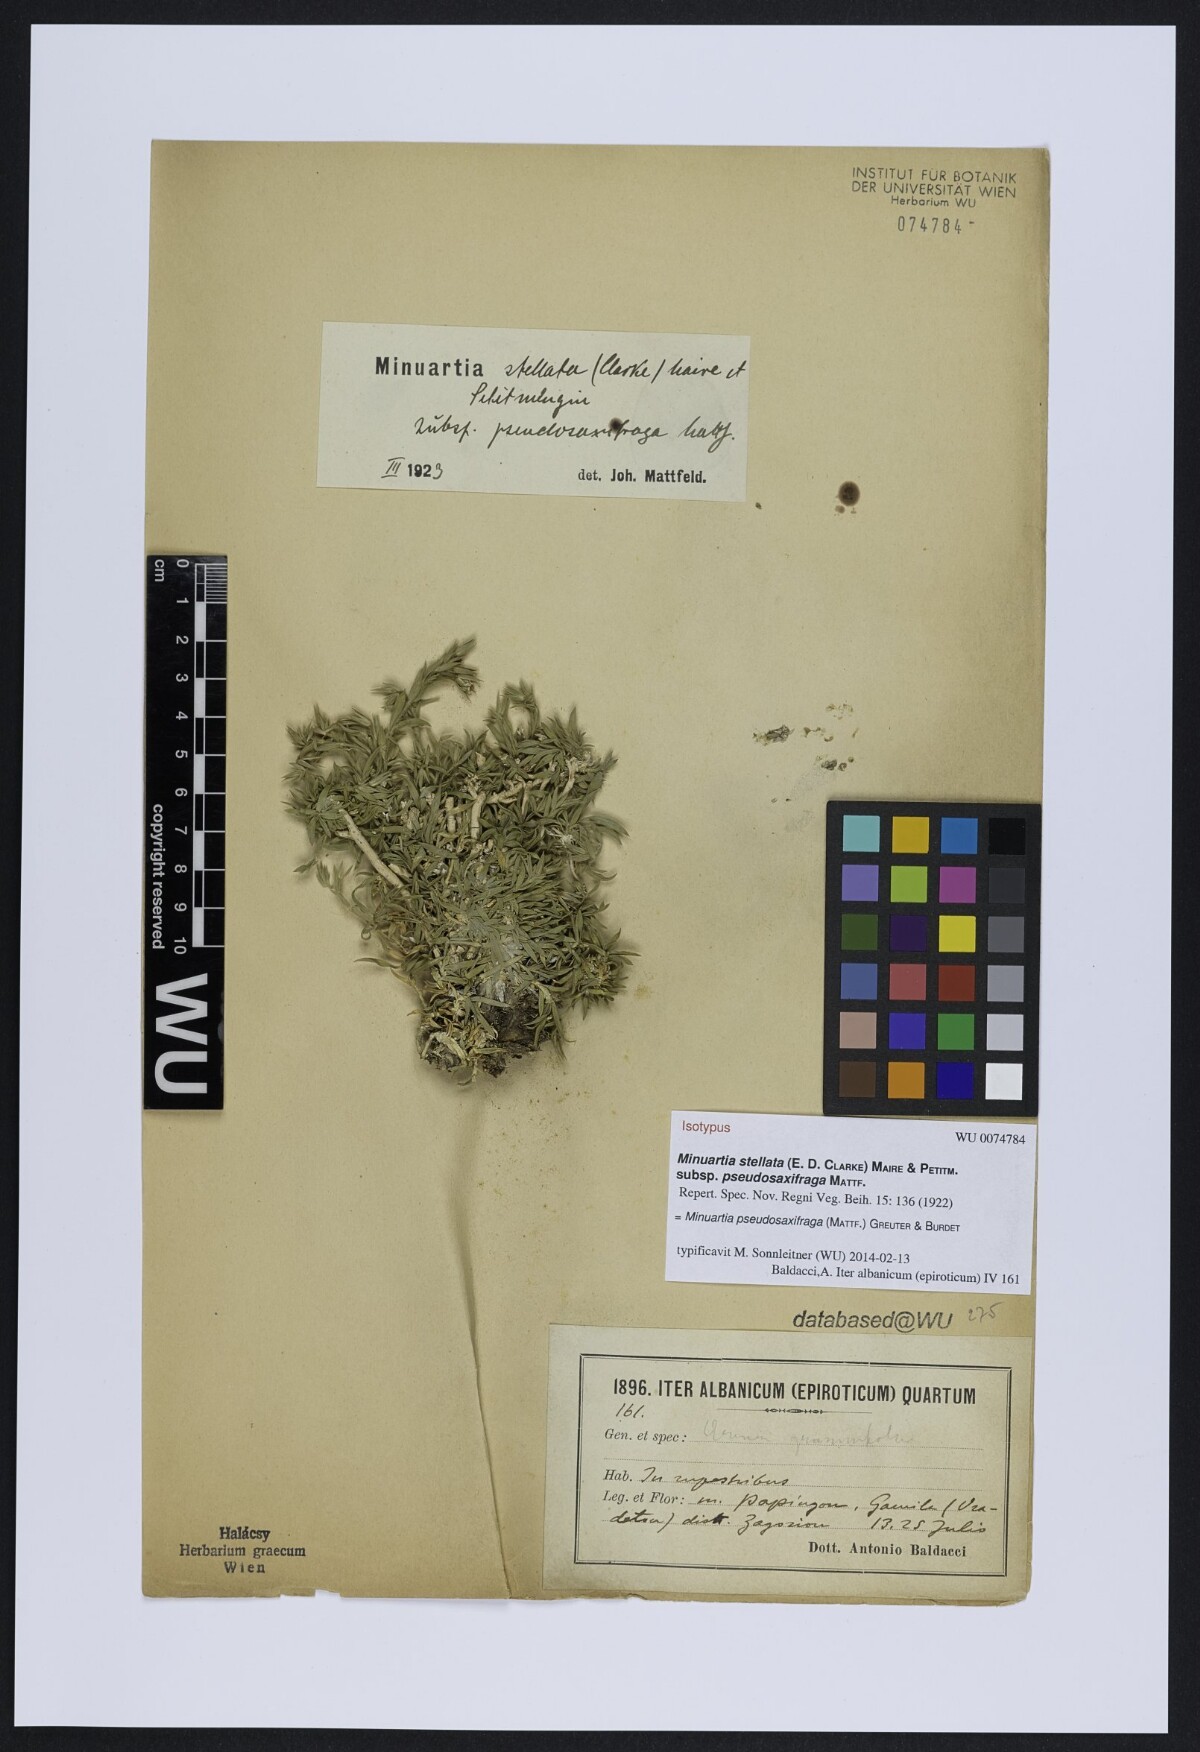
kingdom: Plantae
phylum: Tracheophyta
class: Magnoliopsida
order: Caryophyllales
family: Caryophyllaceae
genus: Mcneillia
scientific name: Mcneillia pseudosaxifraga
